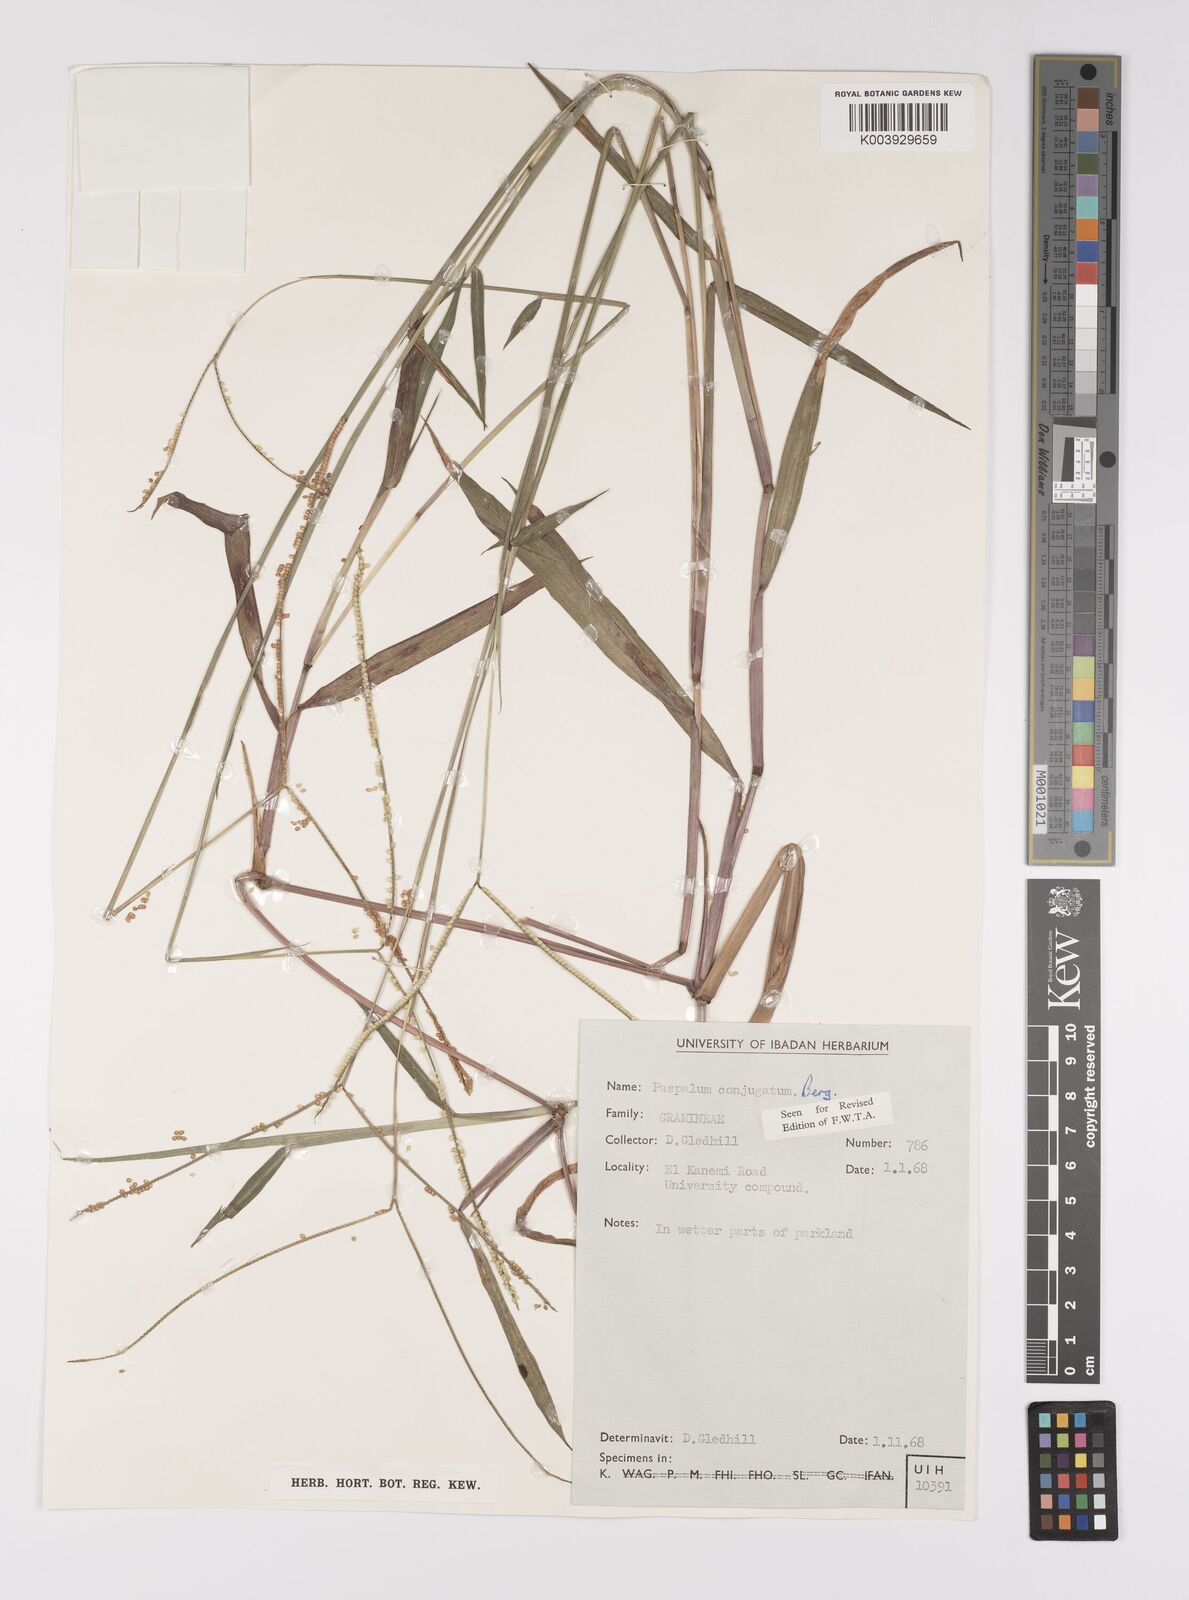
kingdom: Plantae
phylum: Tracheophyta
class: Liliopsida
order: Poales
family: Poaceae
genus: Paspalum
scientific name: Paspalum conjugatum
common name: Hilograss
